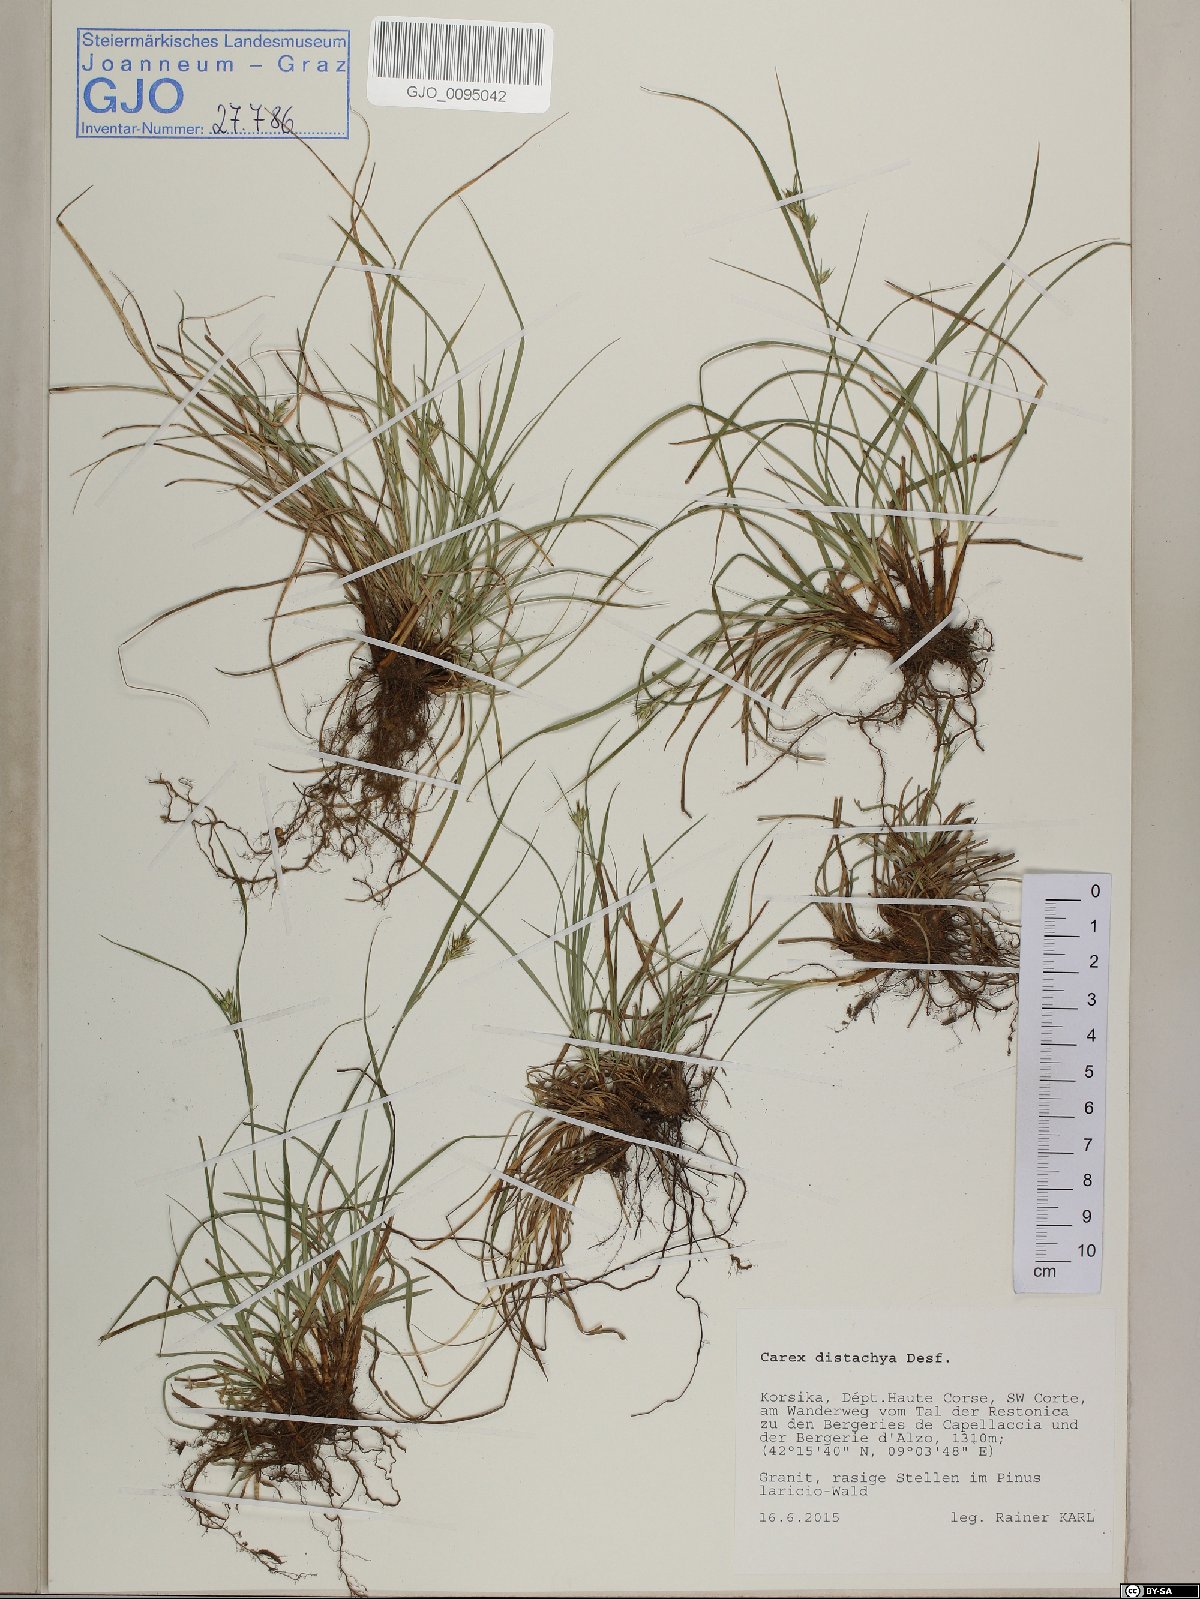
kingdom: Plantae
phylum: Tracheophyta
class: Liliopsida
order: Poales
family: Cyperaceae
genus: Carex
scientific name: Carex distachya
